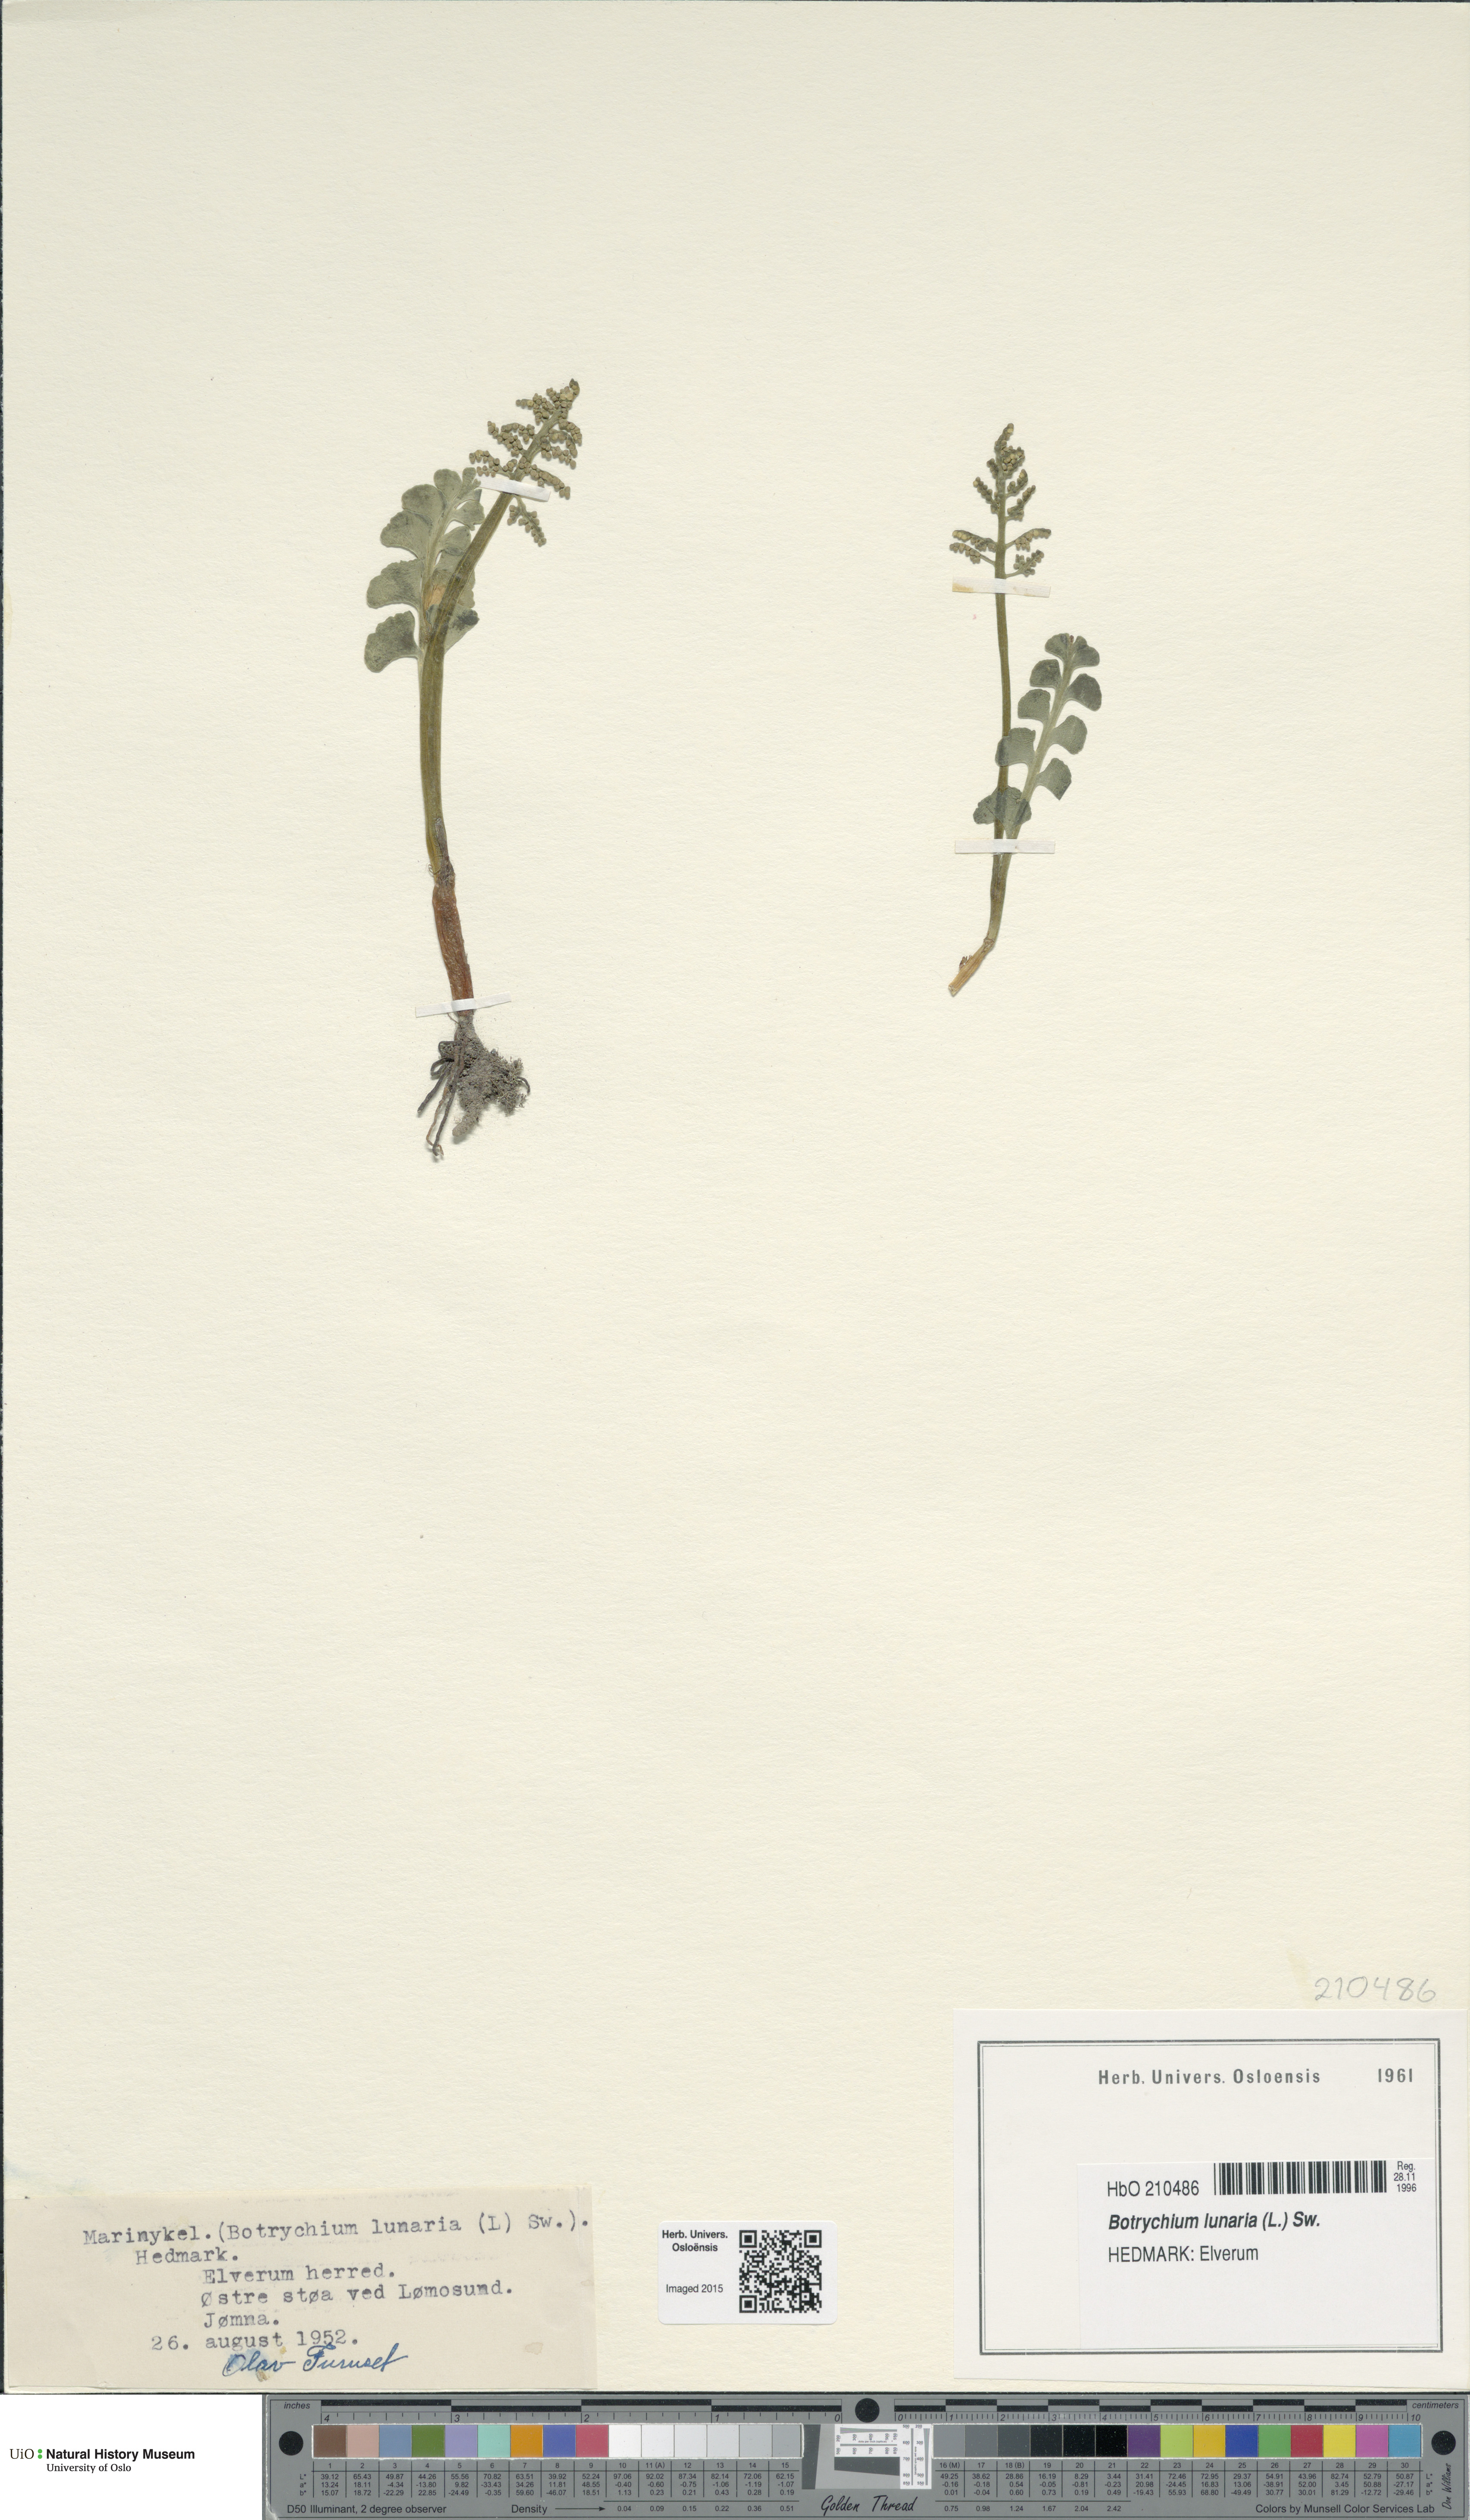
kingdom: Plantae
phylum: Tracheophyta
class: Polypodiopsida
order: Ophioglossales
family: Ophioglossaceae
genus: Botrychium
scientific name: Botrychium lunaria
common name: Moonwort
